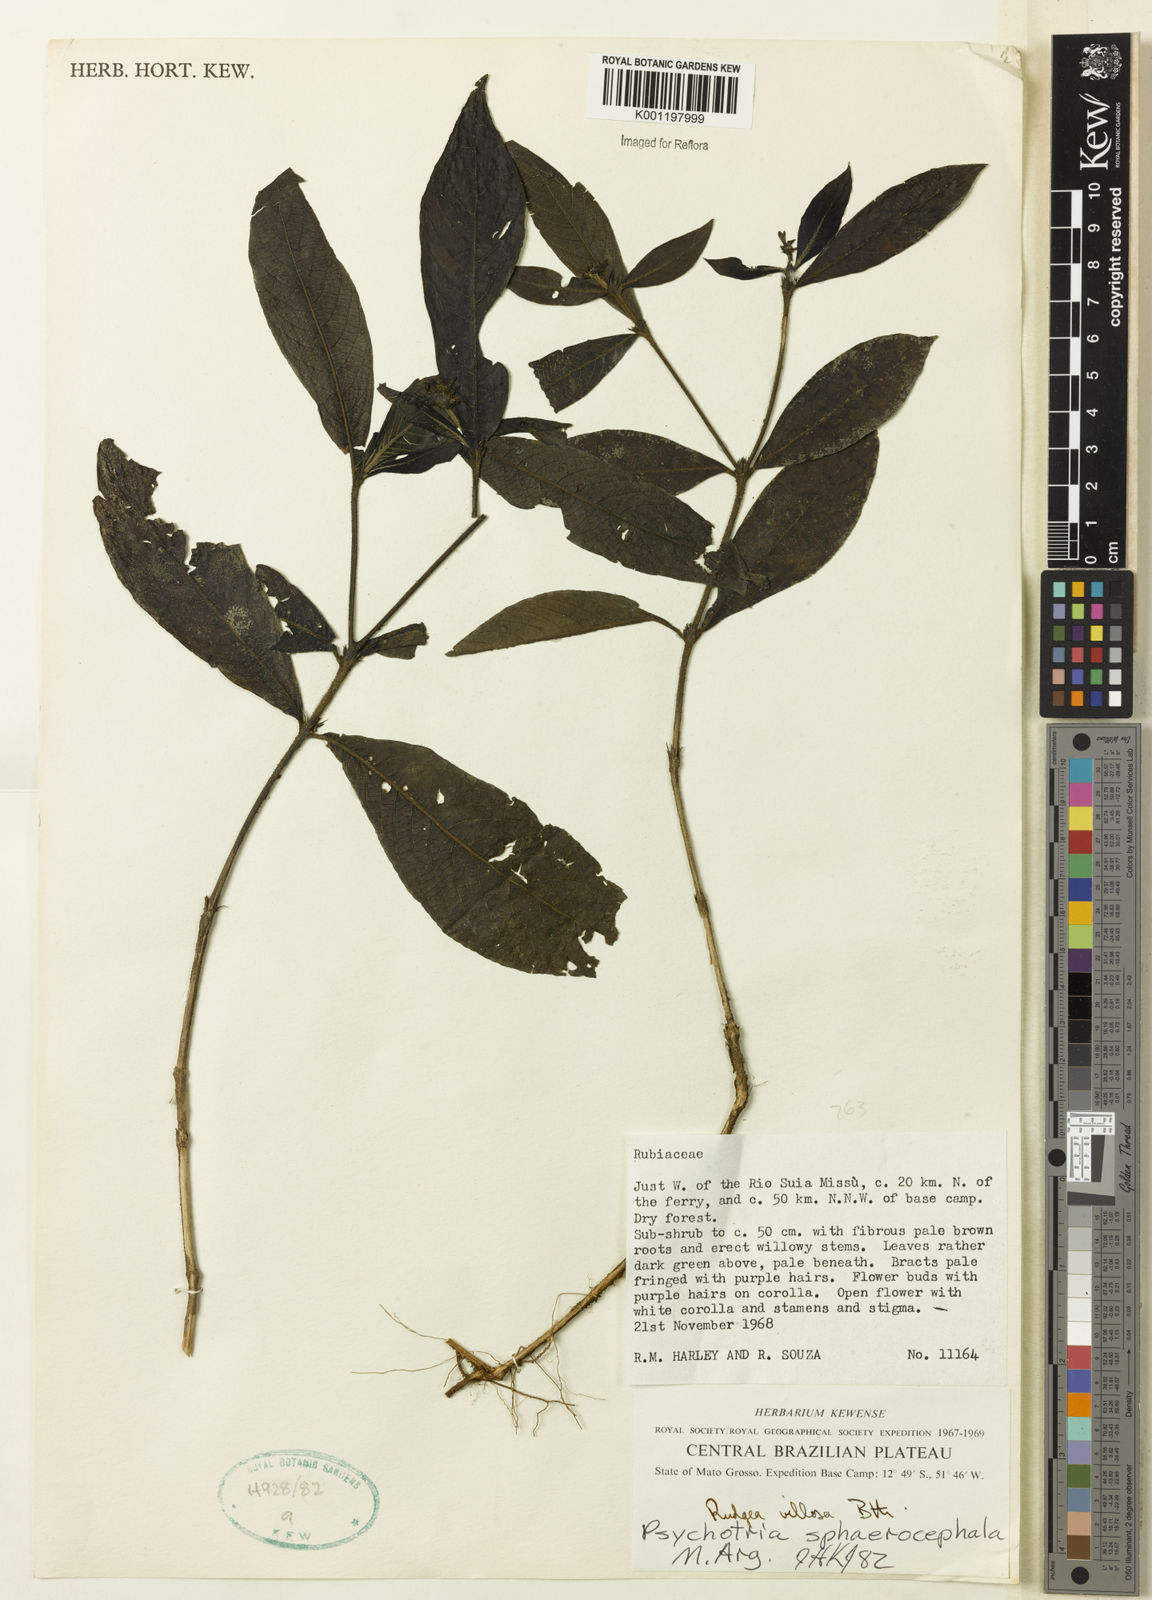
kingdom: Plantae
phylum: Tracheophyta
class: Magnoliopsida
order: Gentianales
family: Rubiaceae
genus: Psychotria
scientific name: Psychotria
